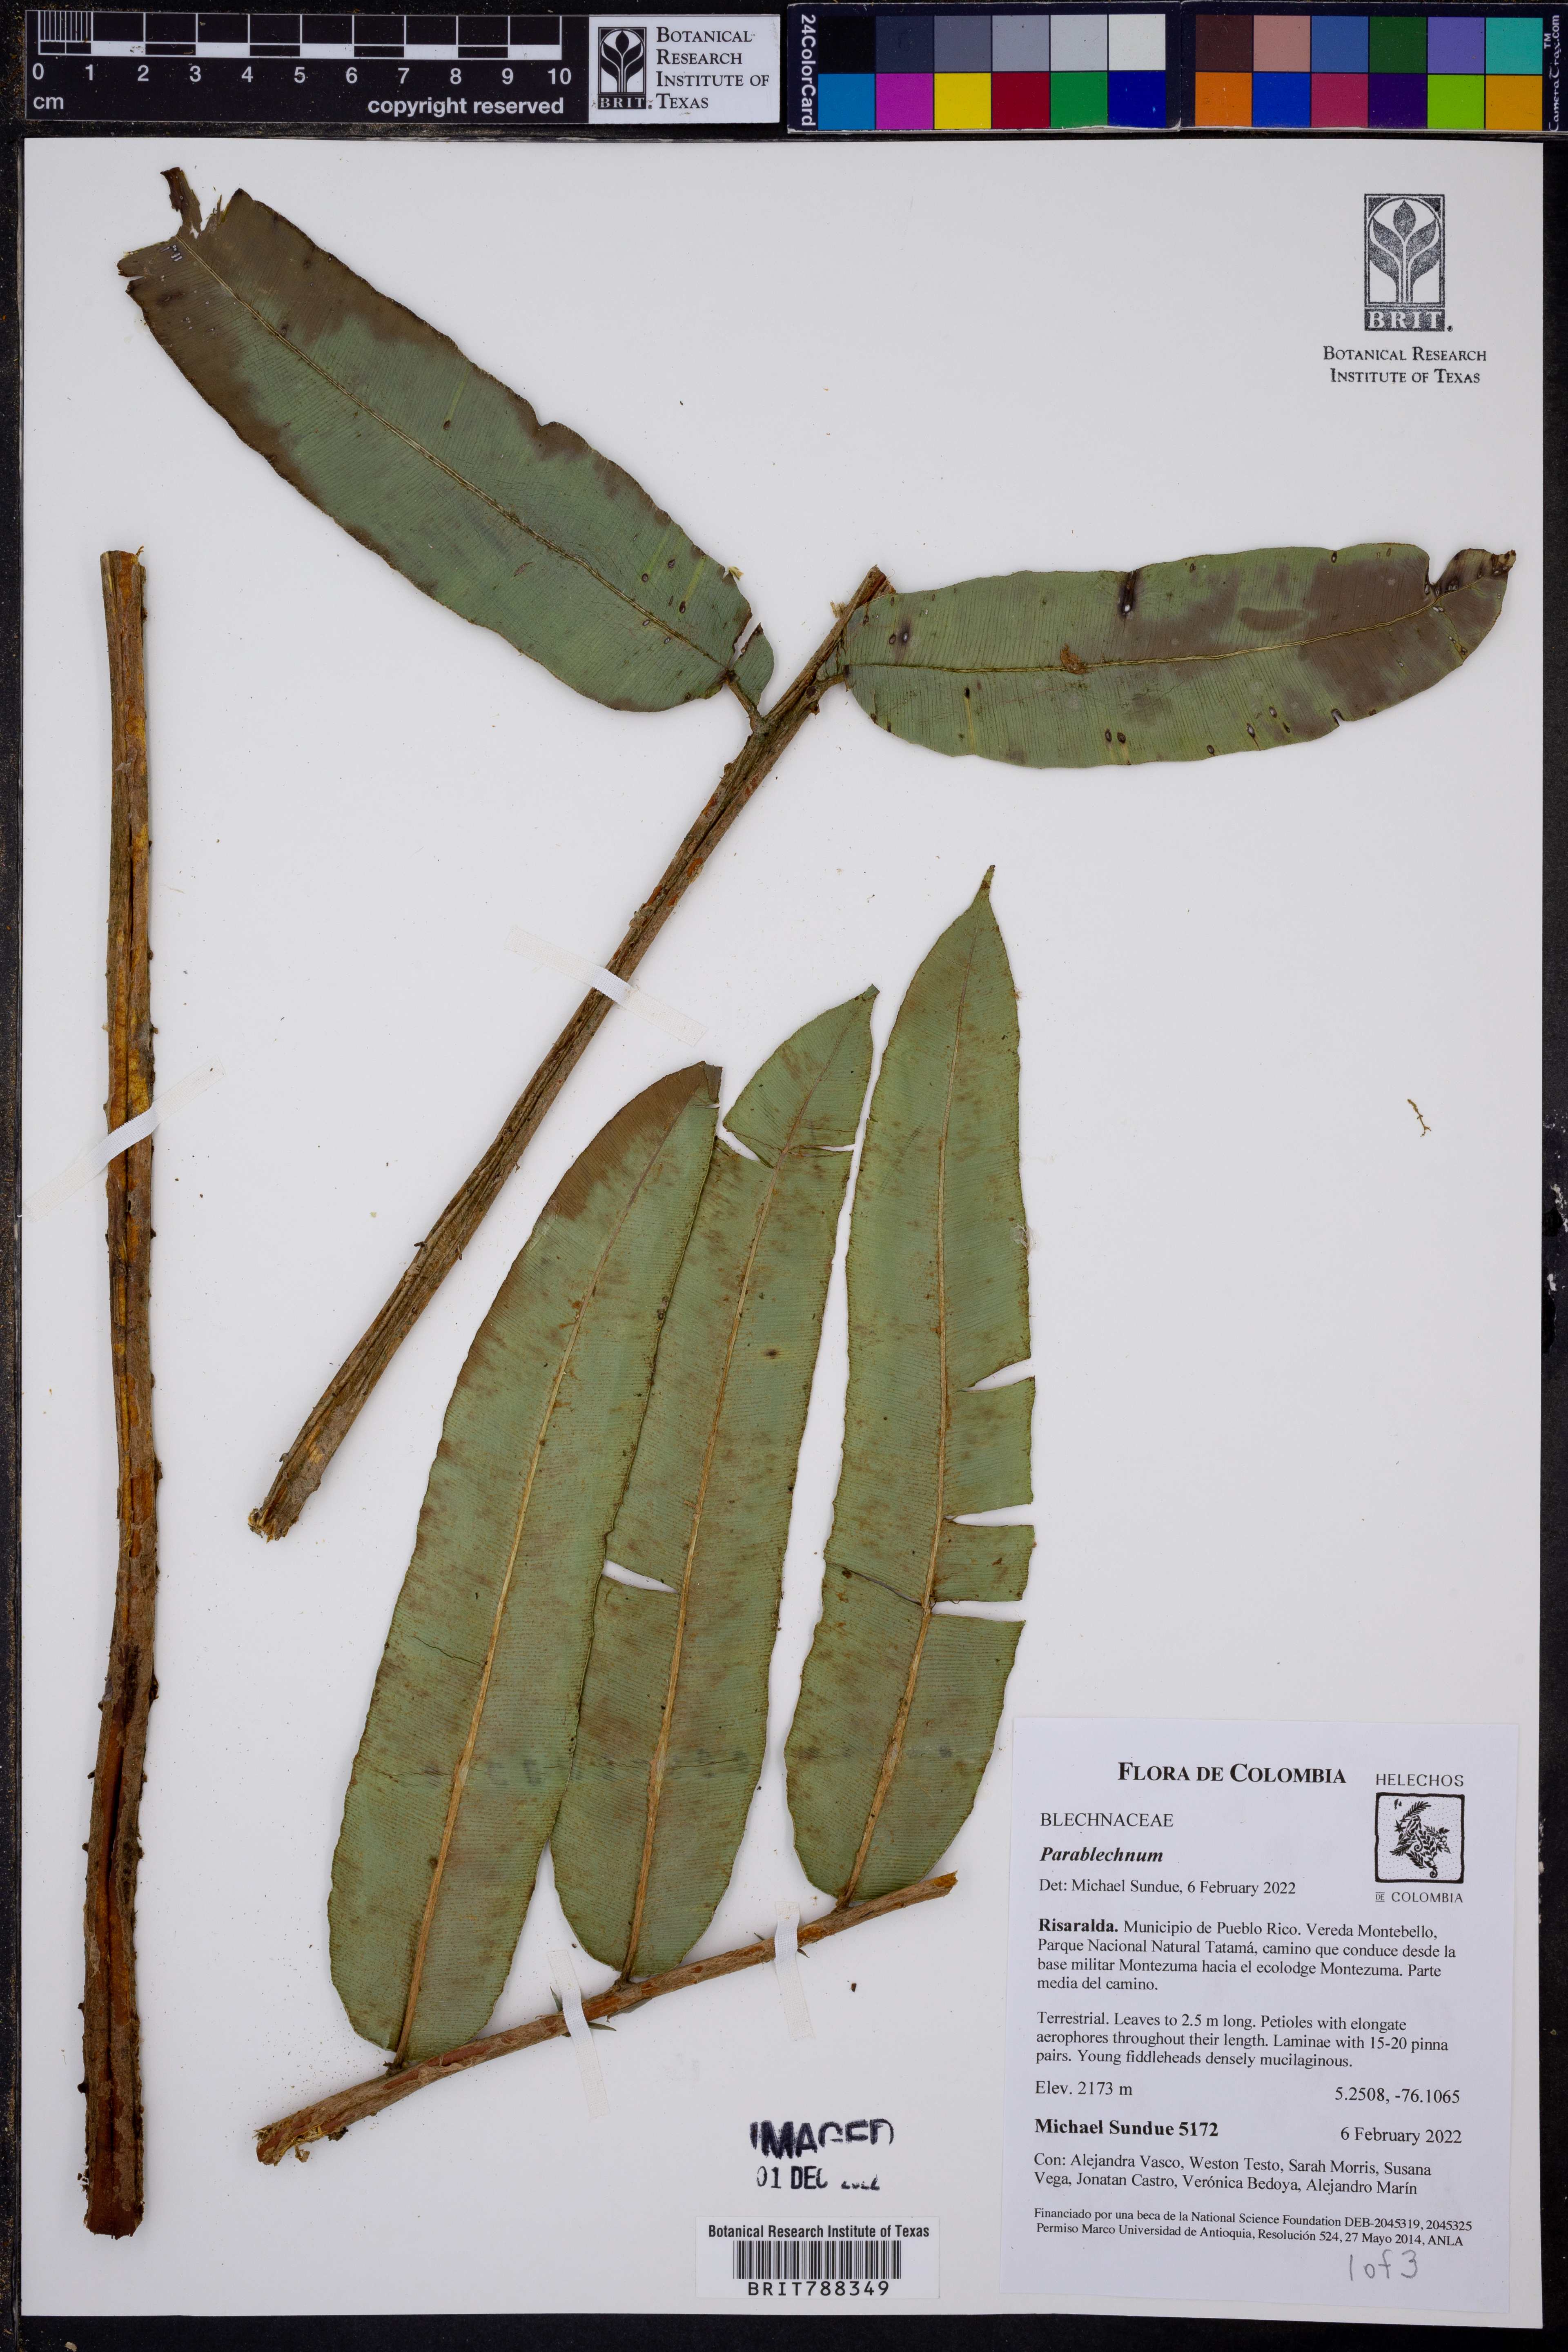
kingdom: Plantae
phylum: Tracheophyta
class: Polypodiopsida
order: Polypodiales
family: Blechnaceae
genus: Parablechnum
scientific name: Parablechnum lechleri
